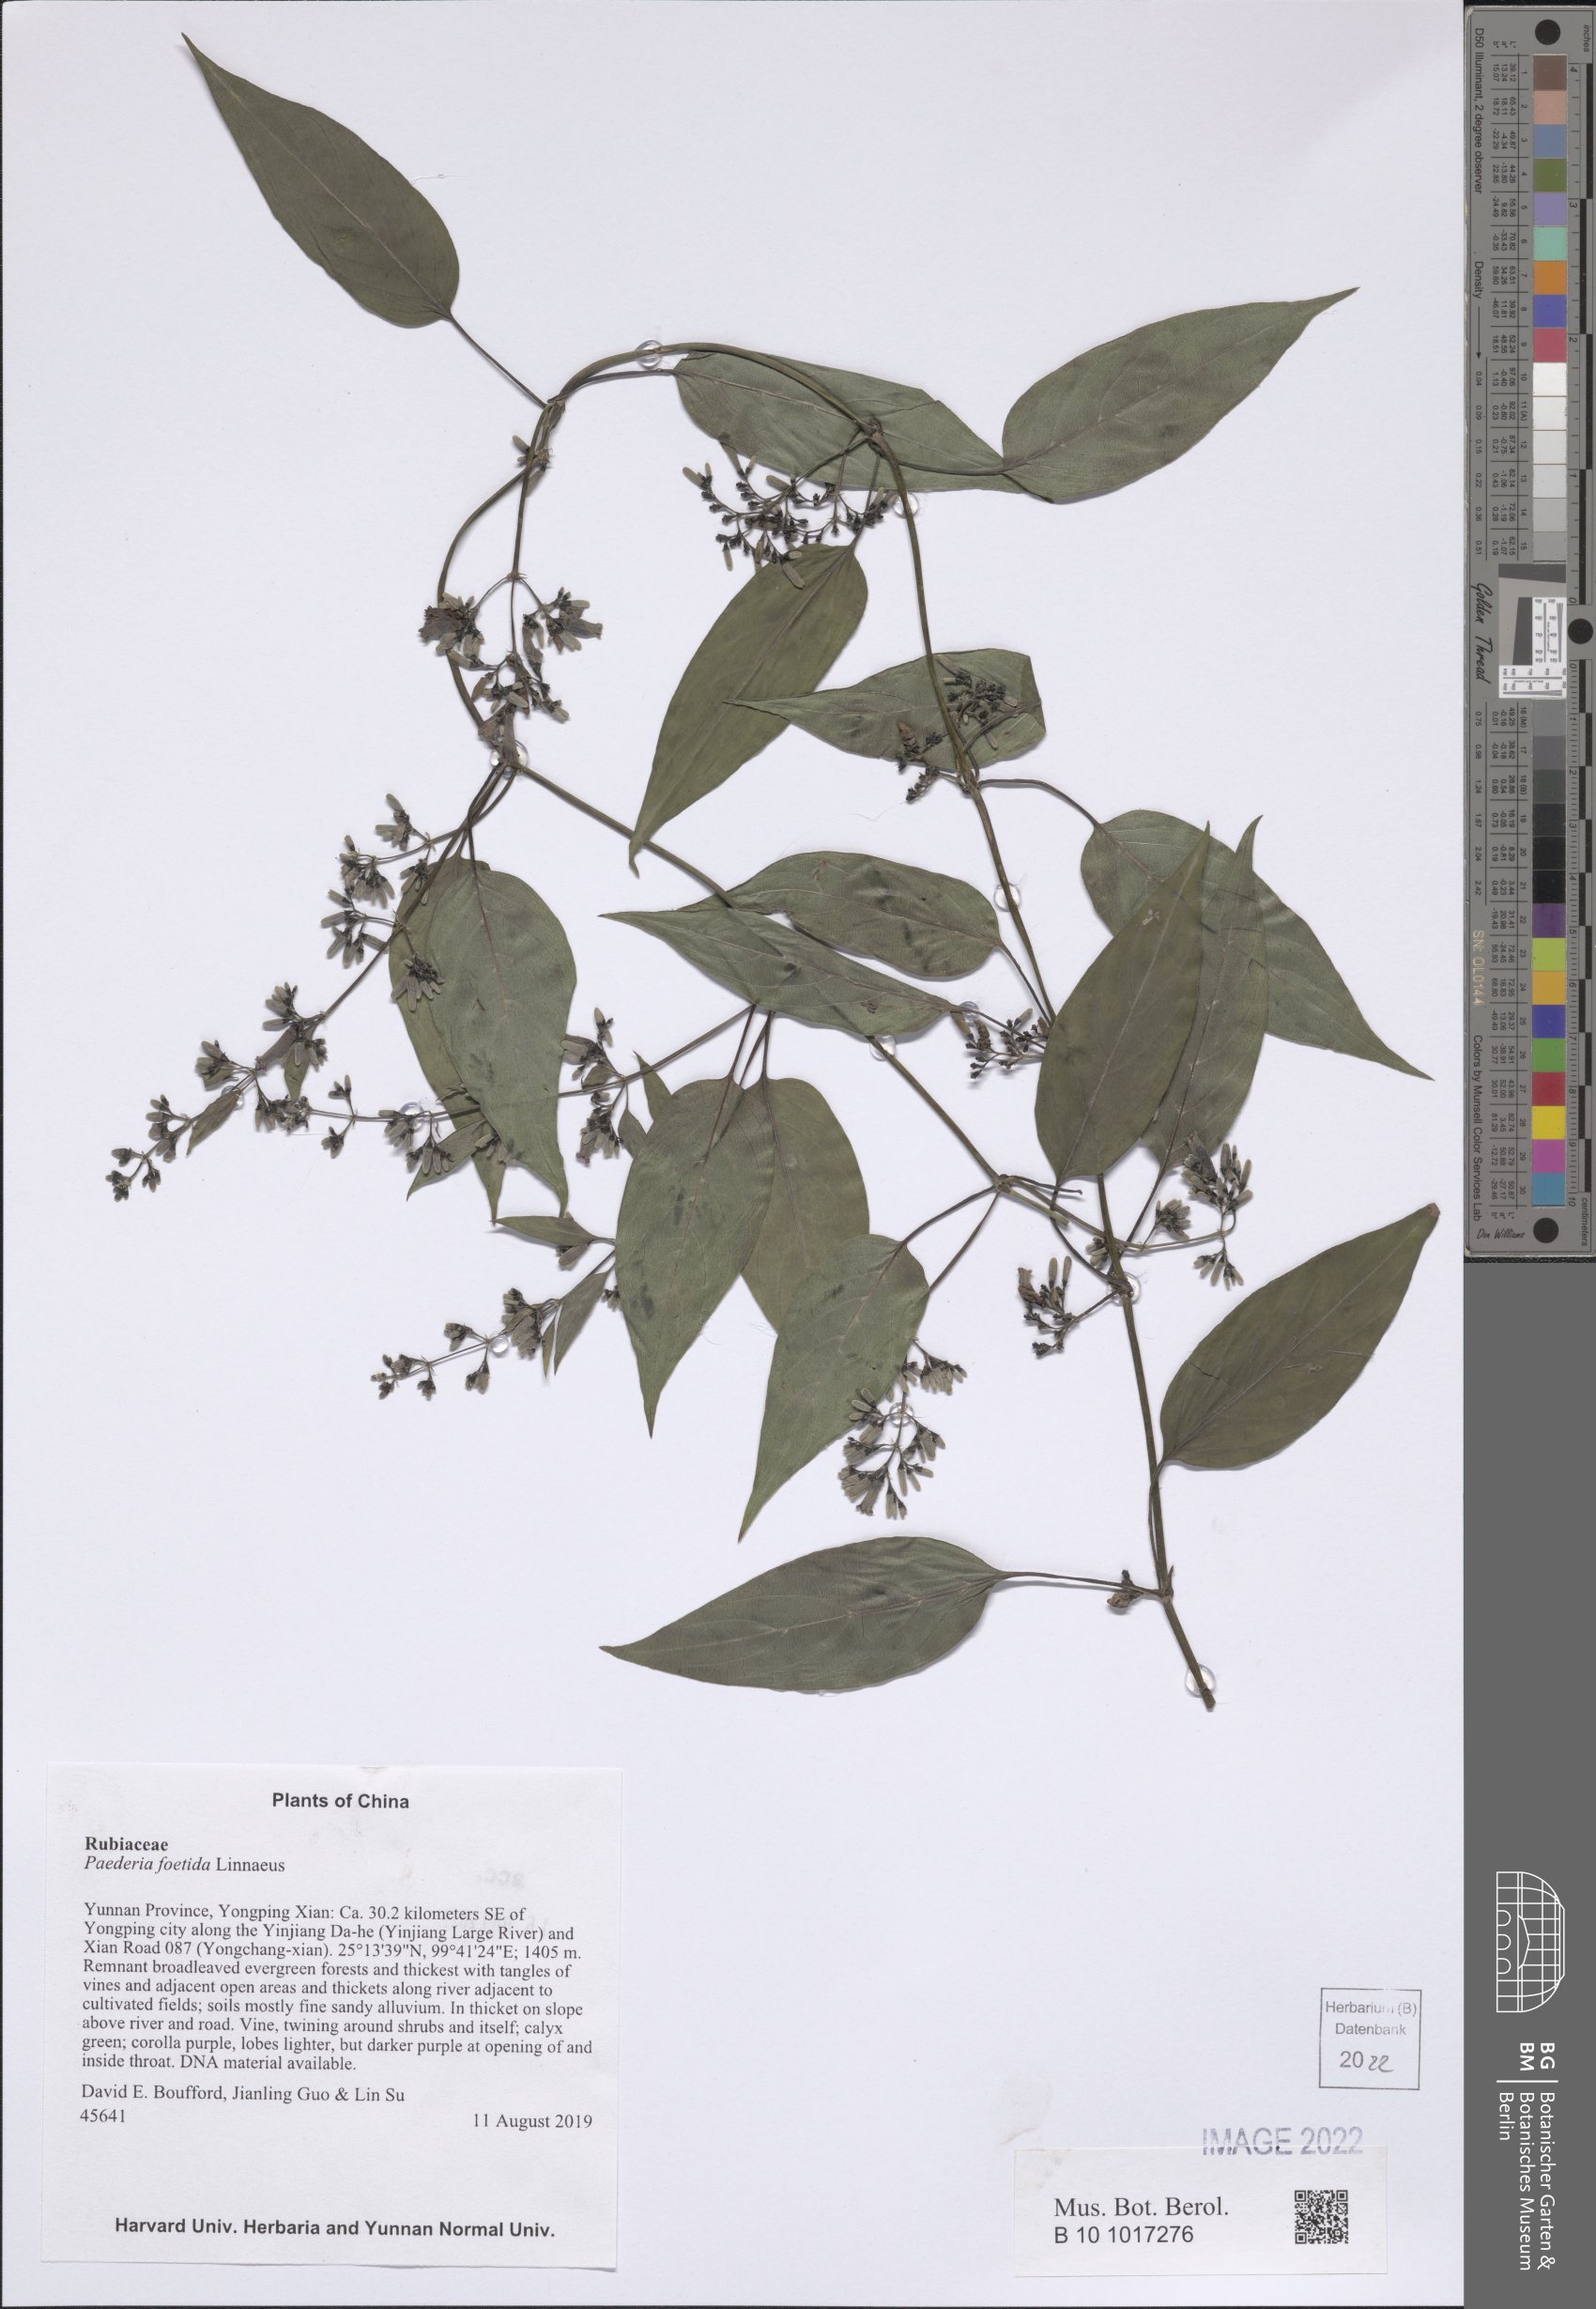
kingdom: Plantae
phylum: Tracheophyta
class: Magnoliopsida
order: Gentianales
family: Rubiaceae
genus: Paederia
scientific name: Paederia foetida
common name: Stinkvine
